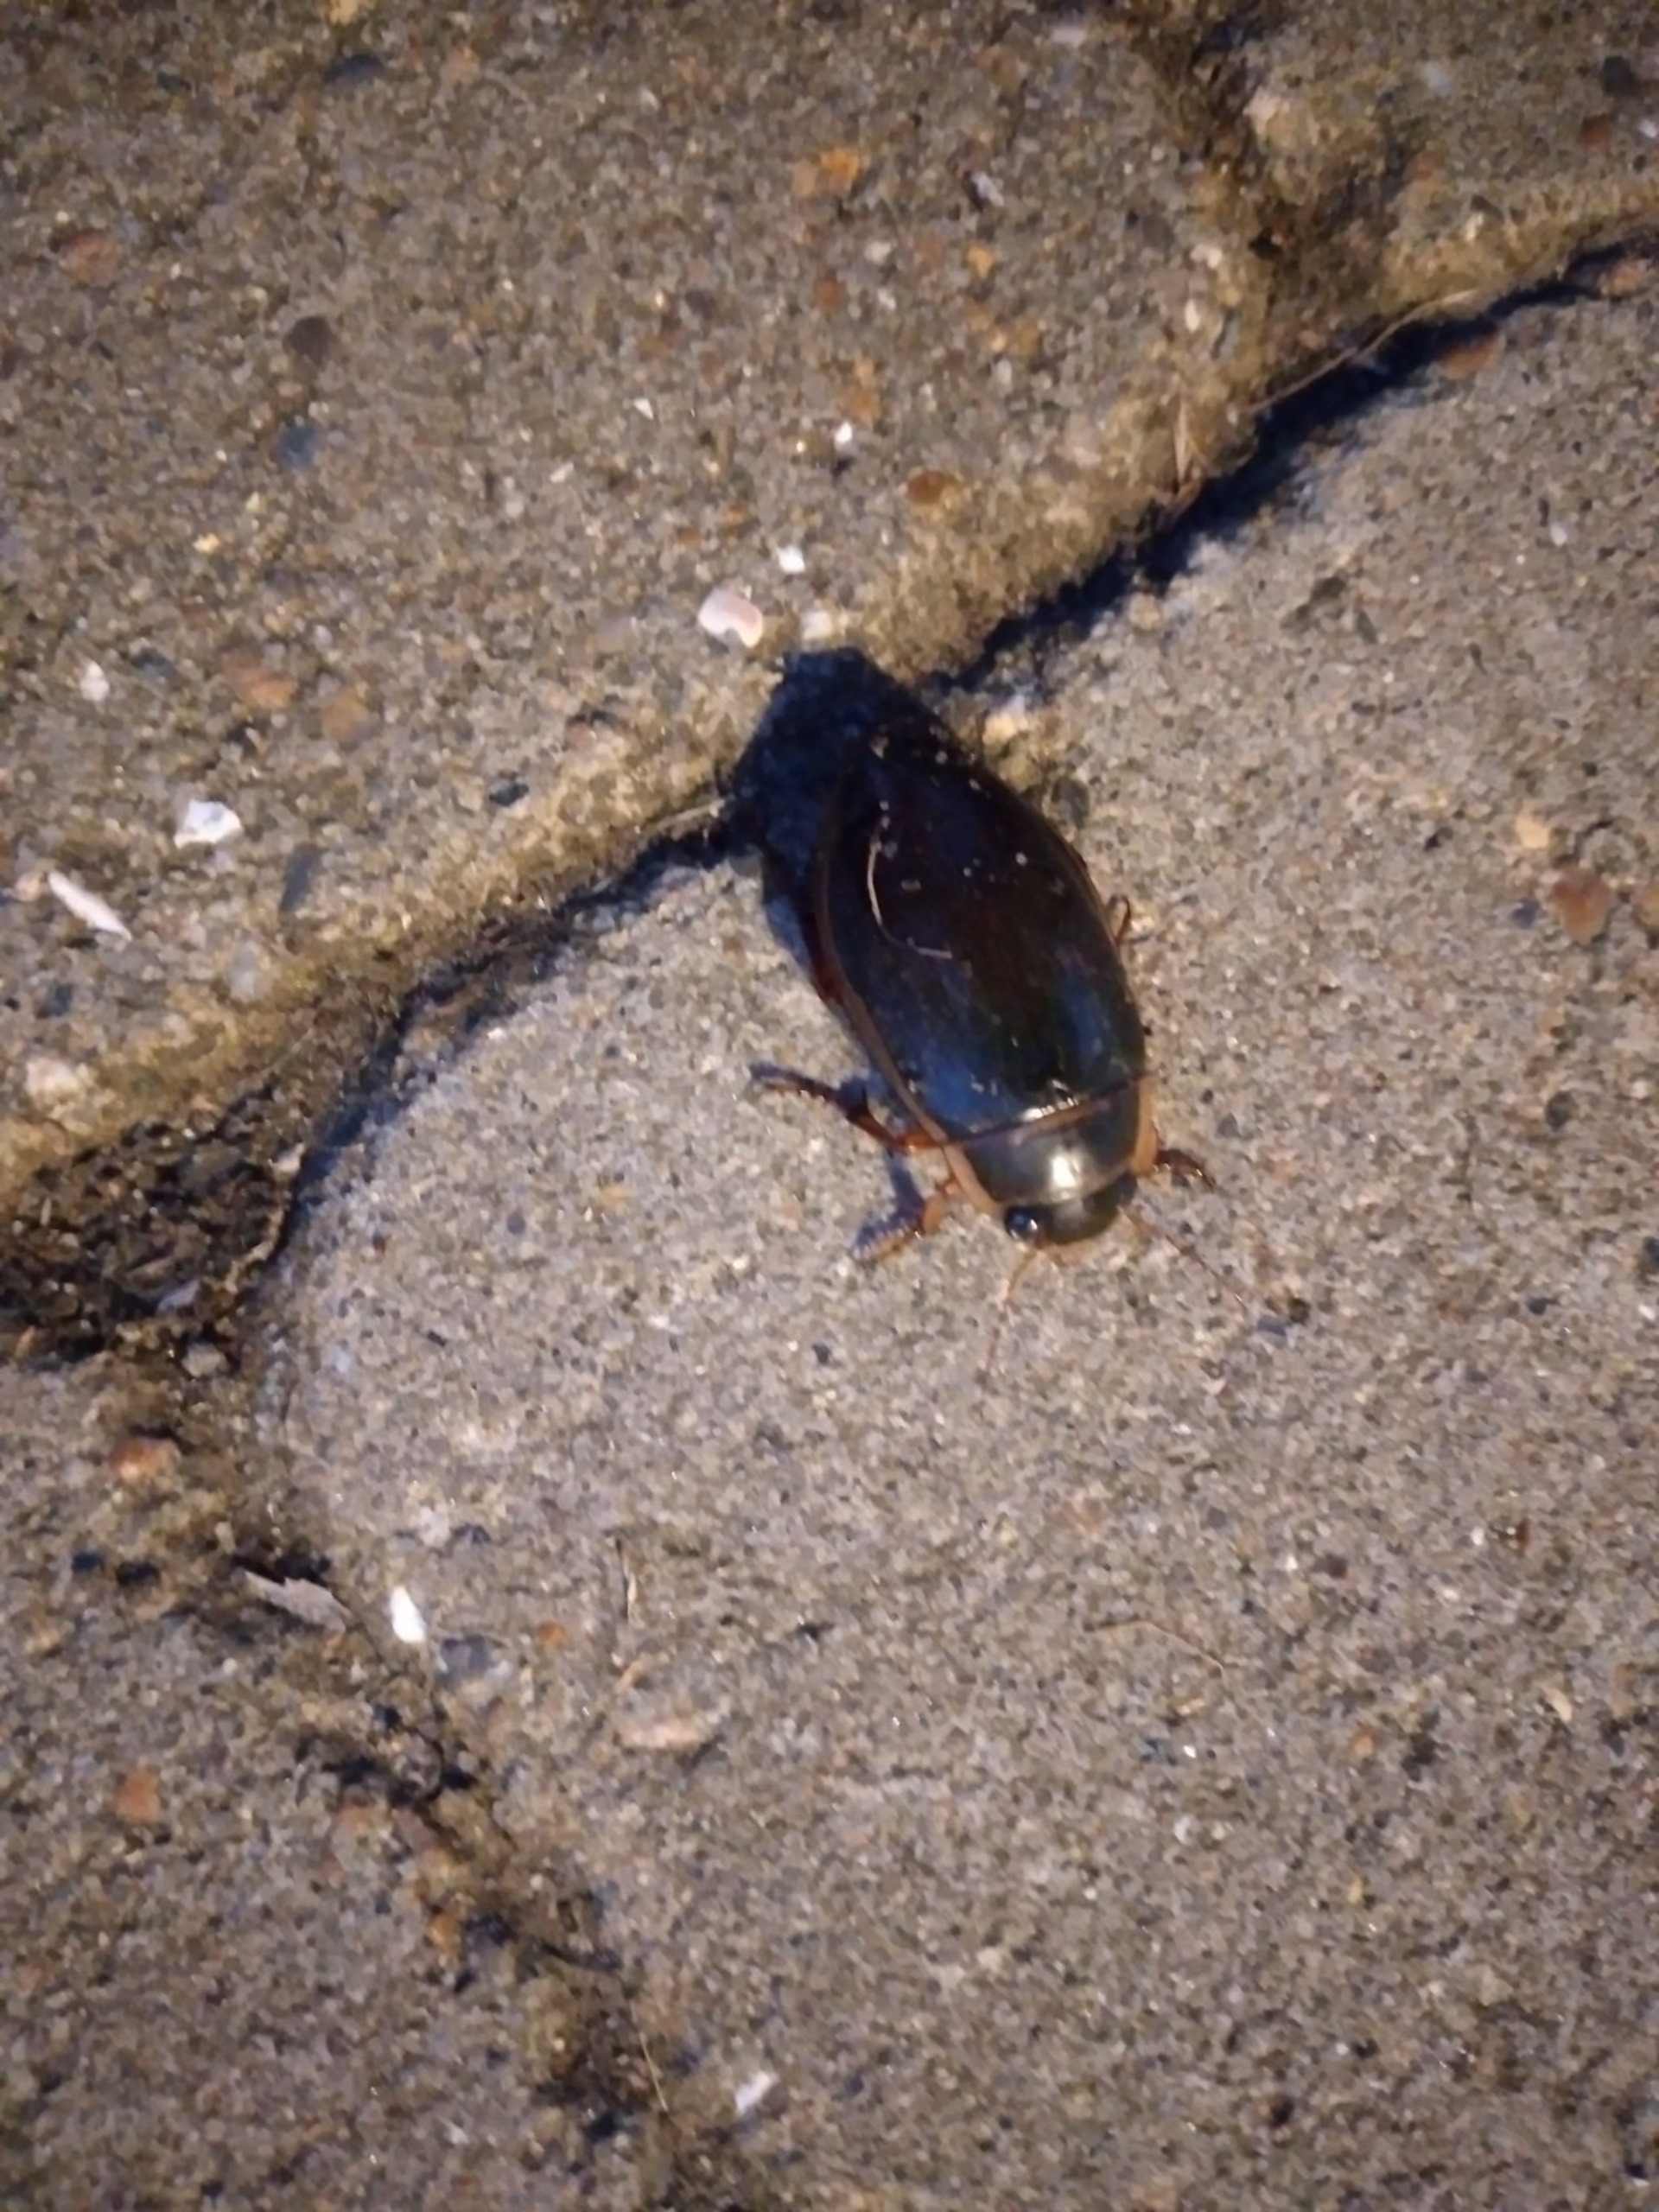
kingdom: Animalia
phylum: Arthropoda
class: Insecta
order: Coleoptera
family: Dytiscidae
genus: Dytiscus
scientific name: Dytiscus
